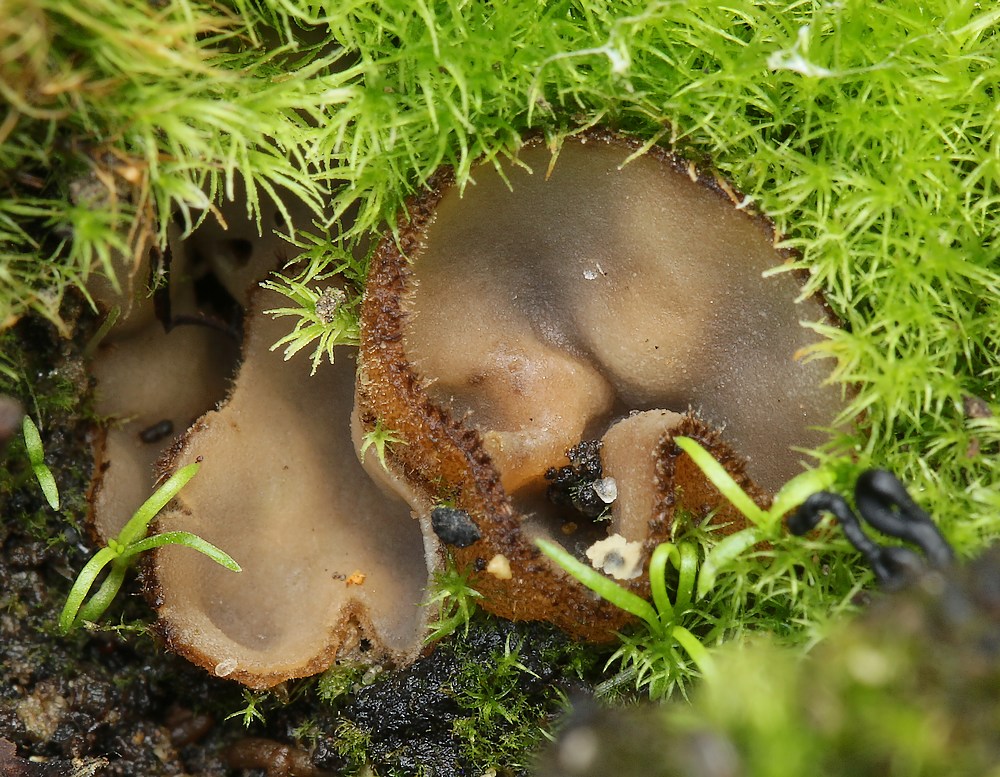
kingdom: Fungi
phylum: Ascomycota
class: Pezizomycetes
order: Pezizales
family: Pyronemataceae
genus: Trichophaea
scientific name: Trichophaea gregaria
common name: tensporet børstebæger
